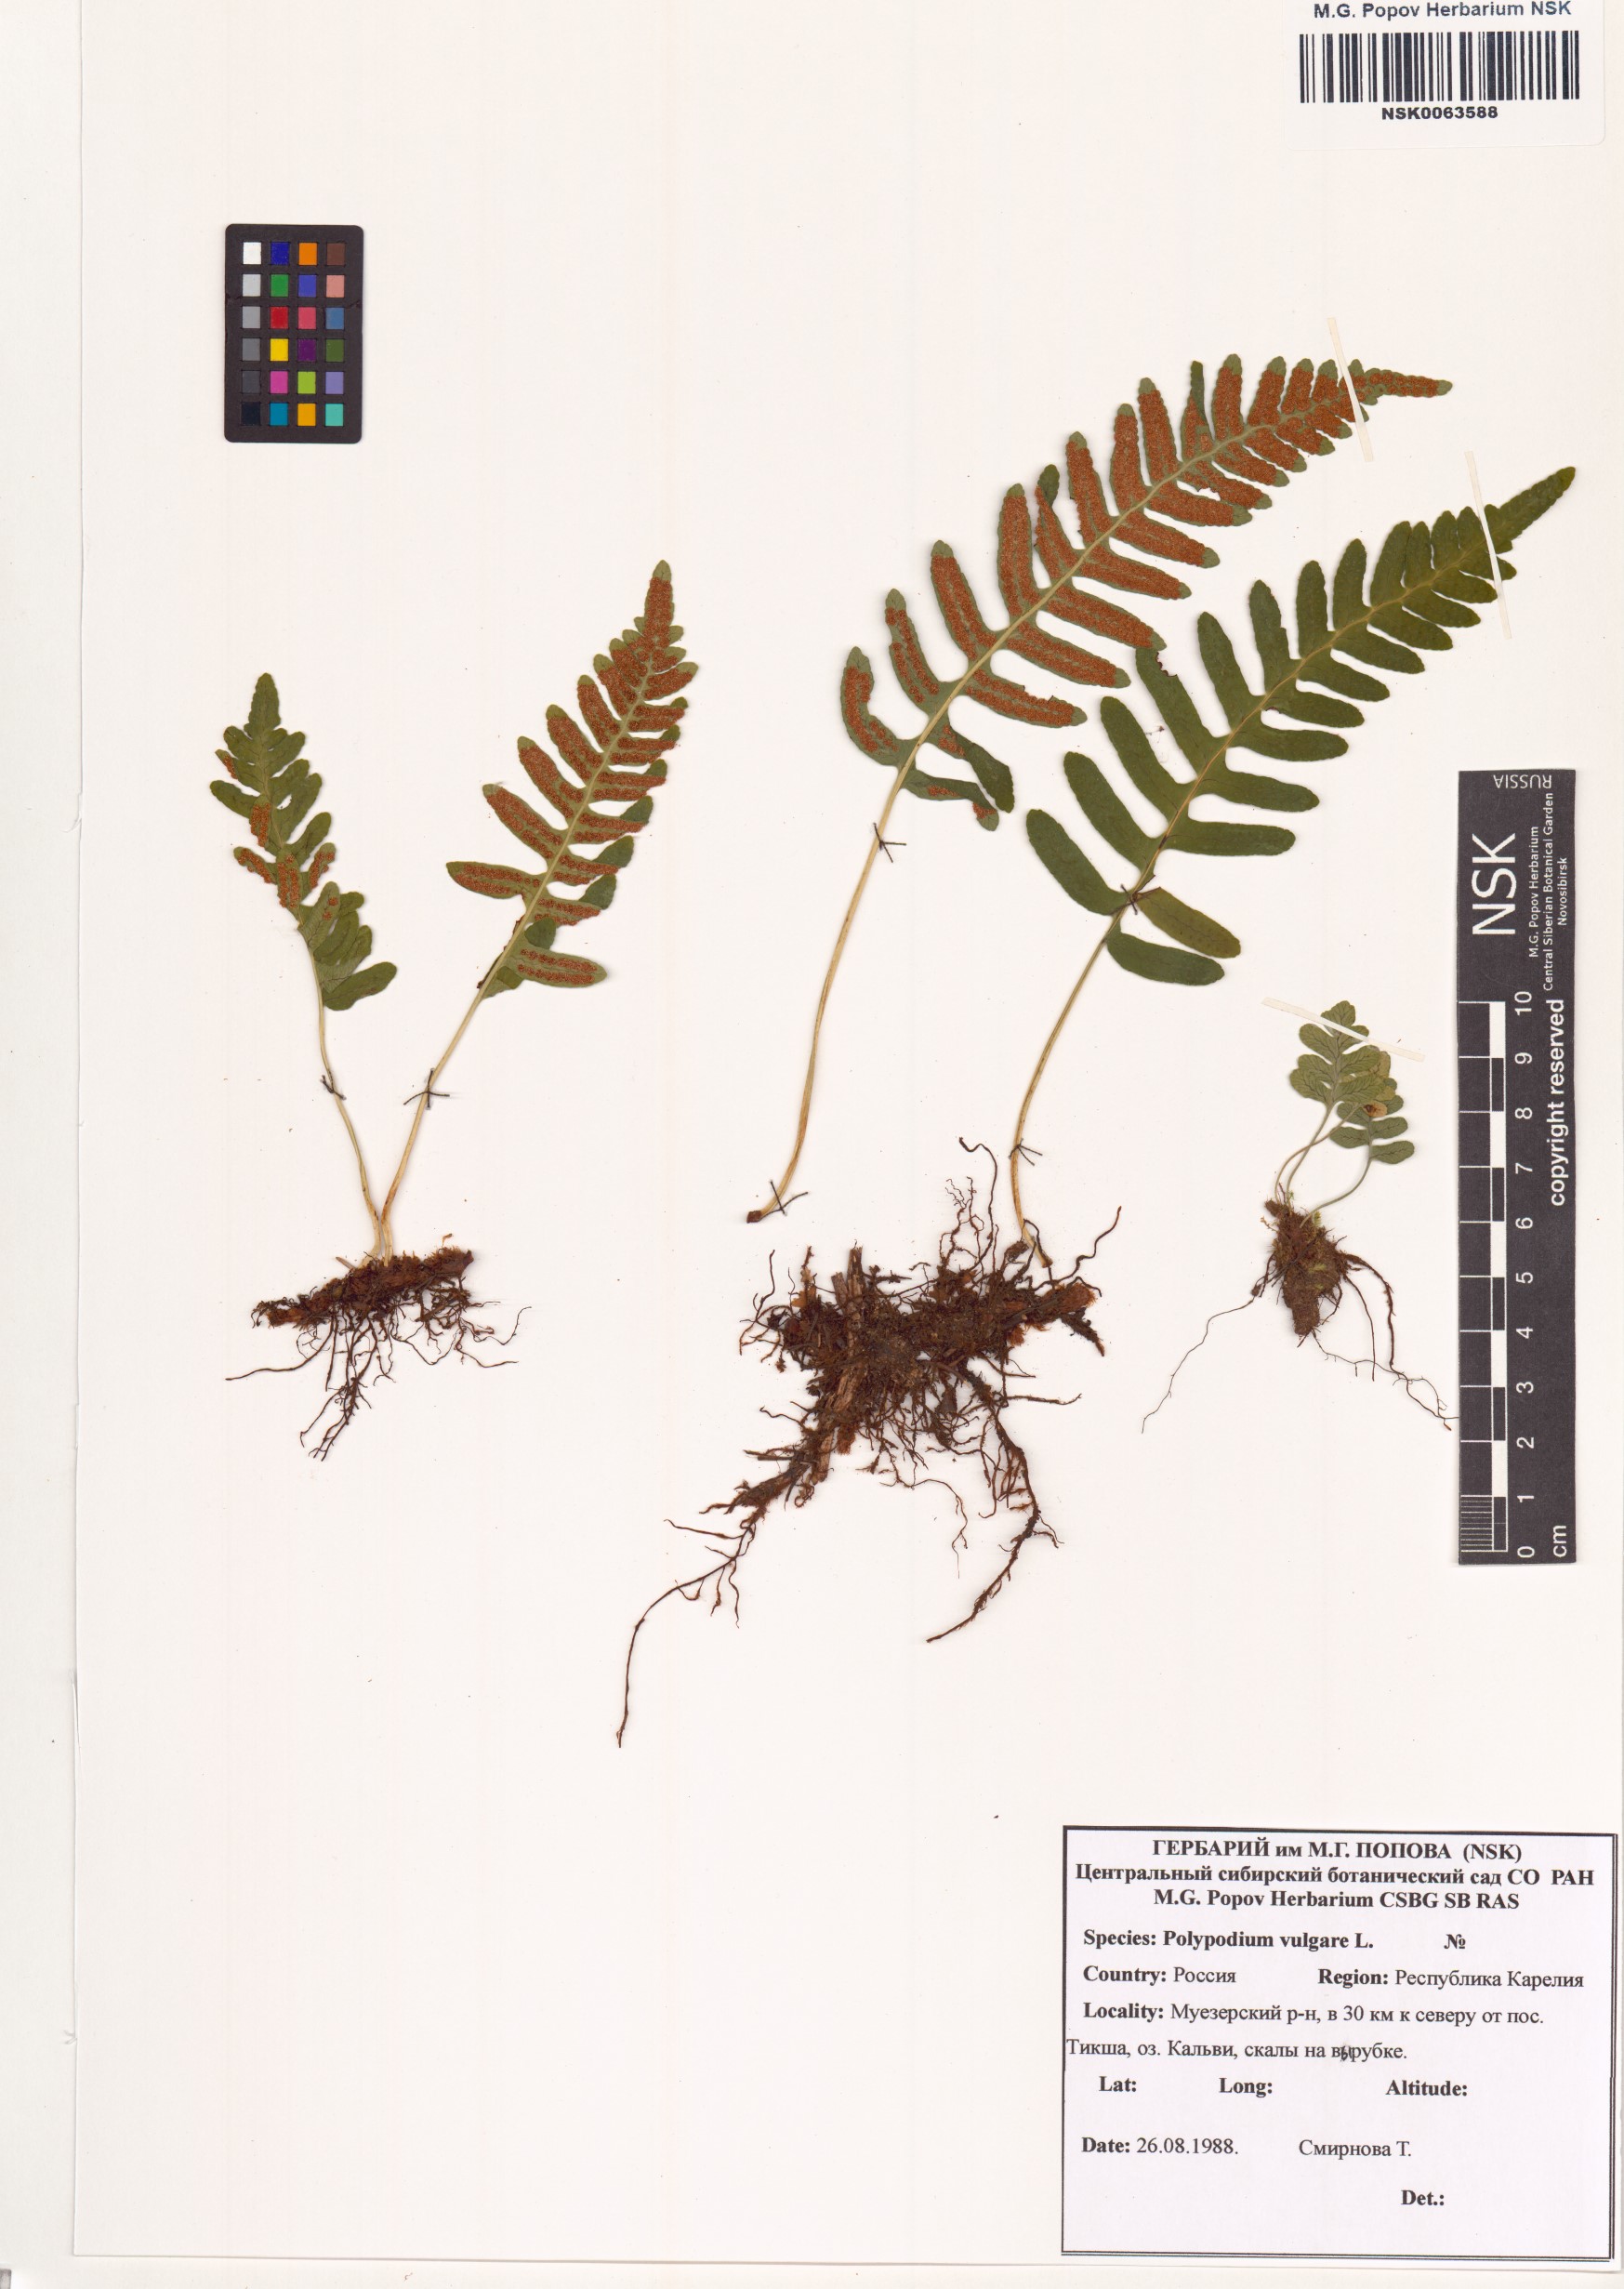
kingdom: Plantae
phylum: Tracheophyta
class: Polypodiopsida
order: Polypodiales
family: Polypodiaceae
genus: Polypodium
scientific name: Polypodium vulgare
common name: Common polypody
